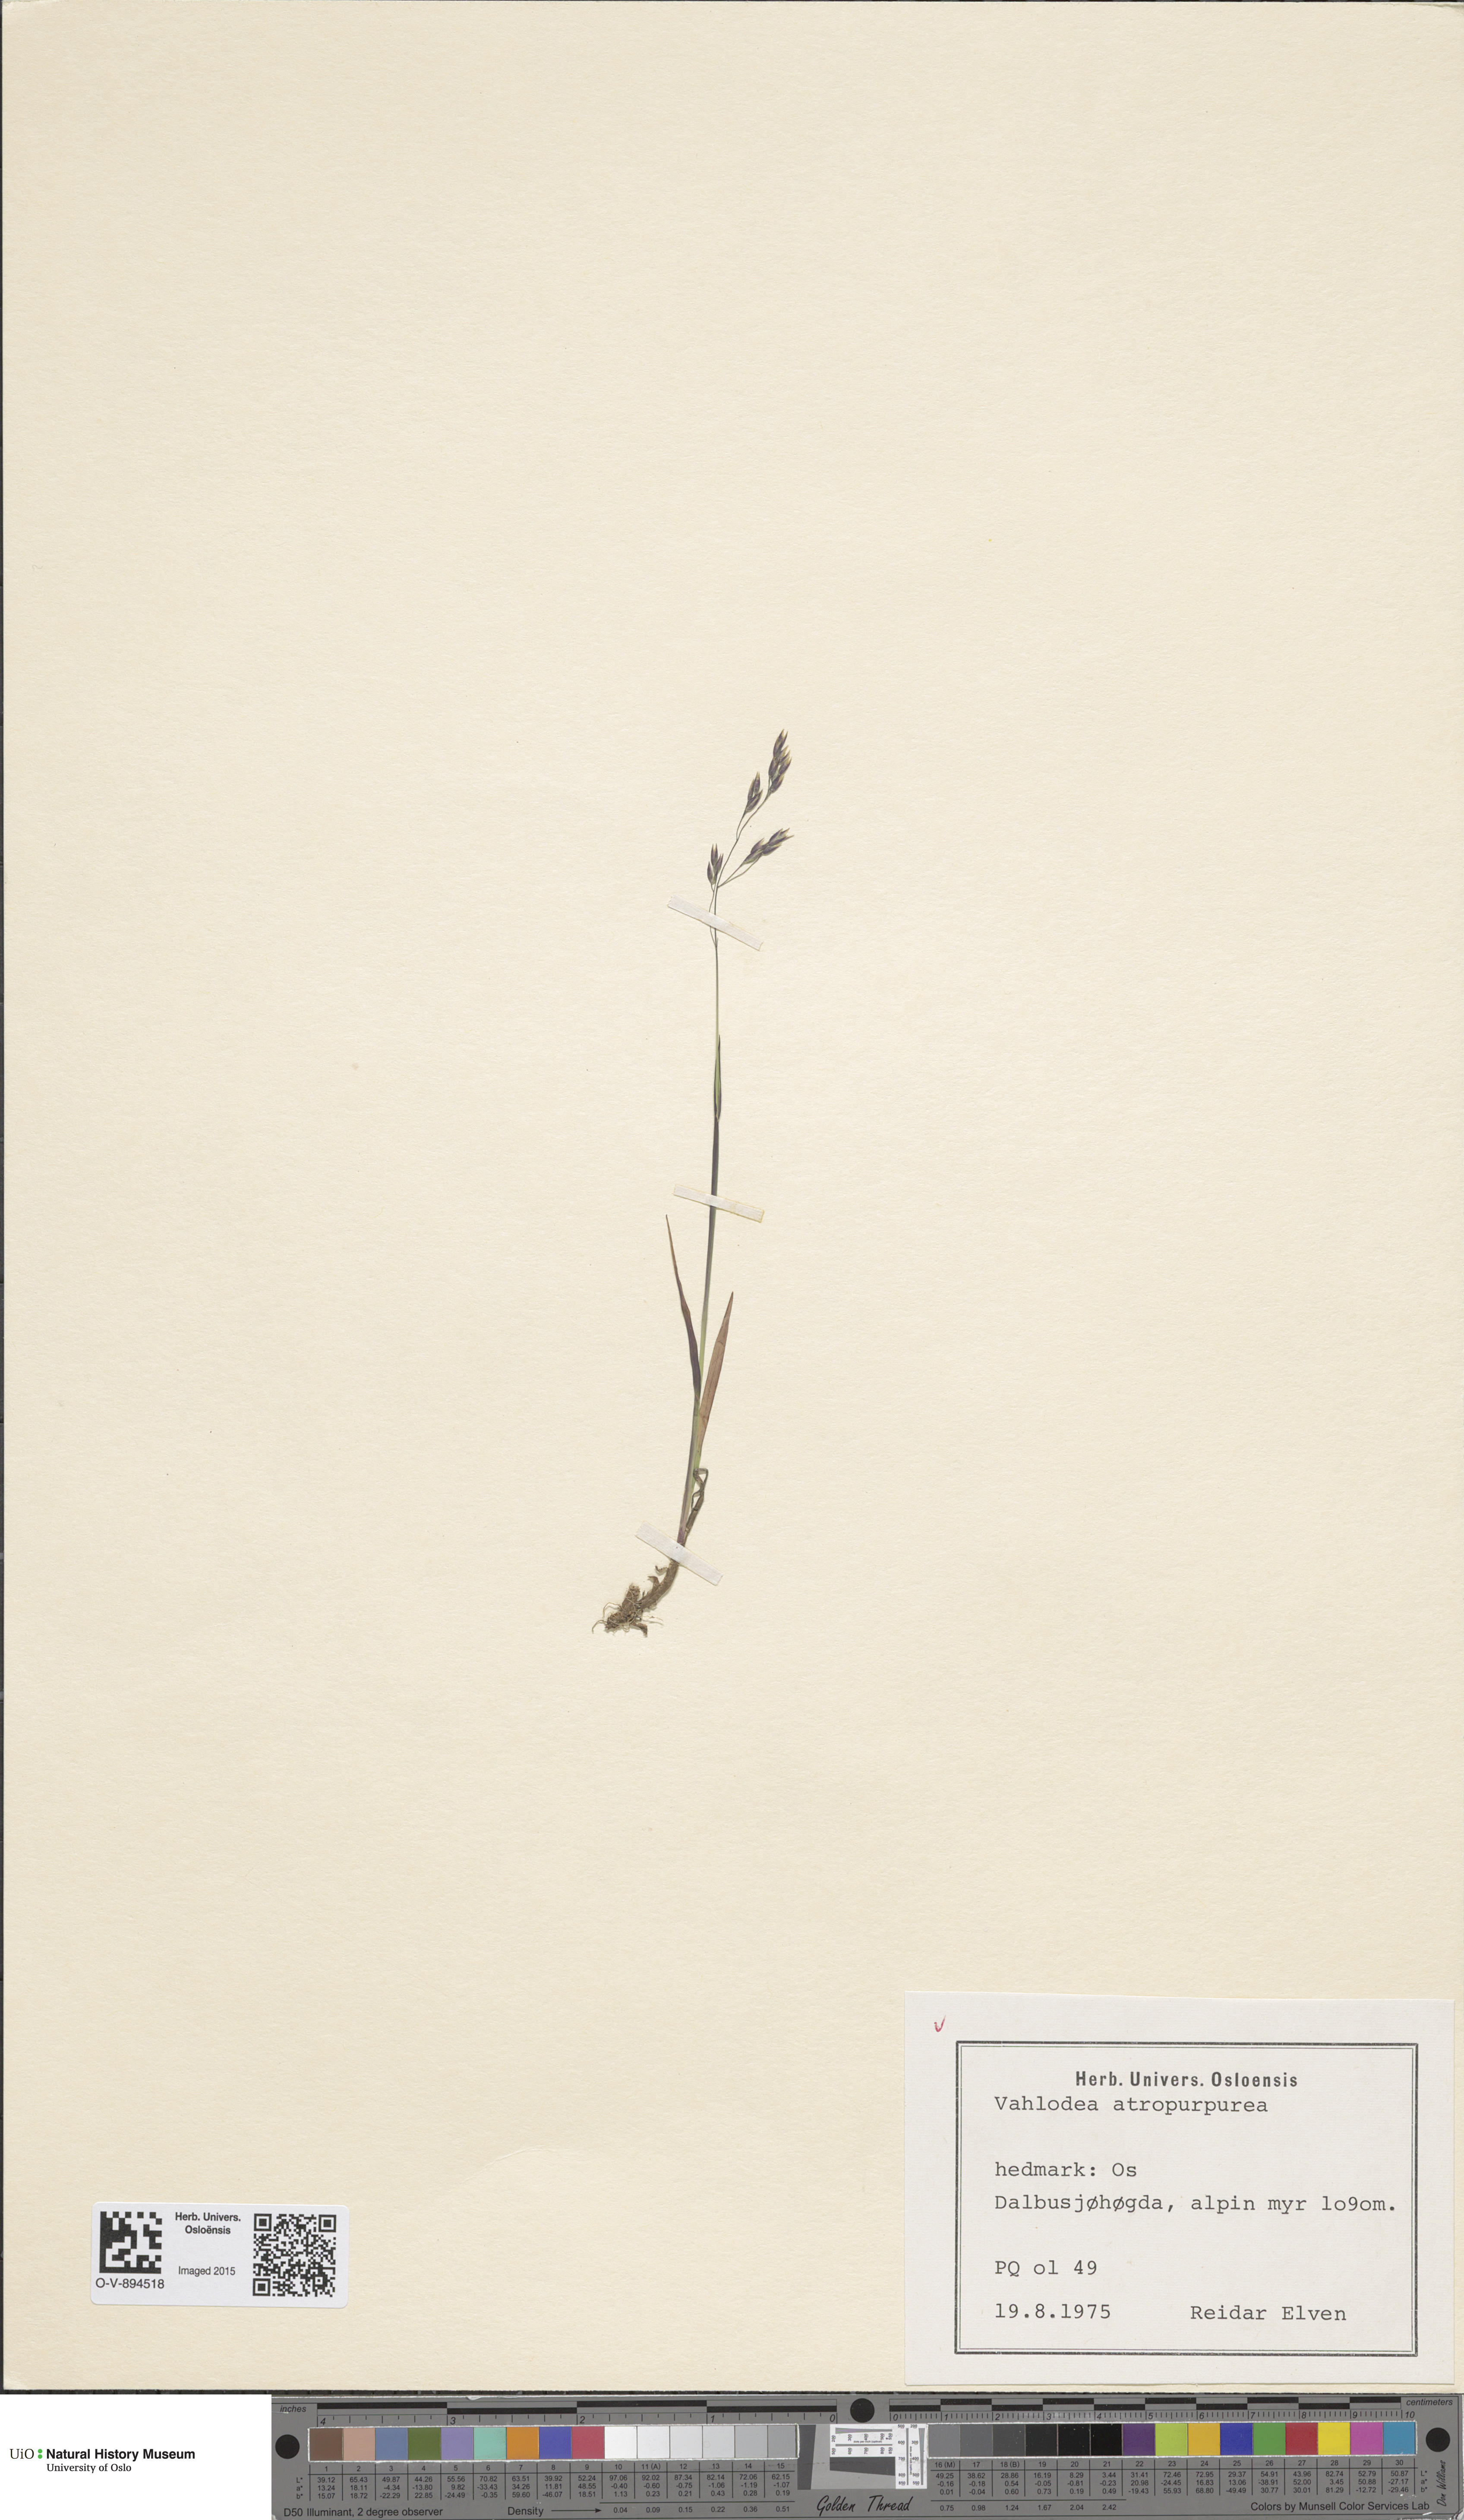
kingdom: Plantae
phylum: Tracheophyta
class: Liliopsida
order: Poales
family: Poaceae
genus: Vahlodea
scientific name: Vahlodea atropurpurea
